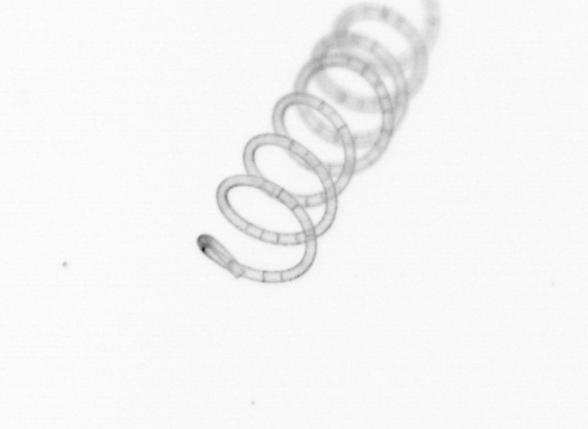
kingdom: Chromista
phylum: Ochrophyta
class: Bacillariophyceae
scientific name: Bacillariophyceae
